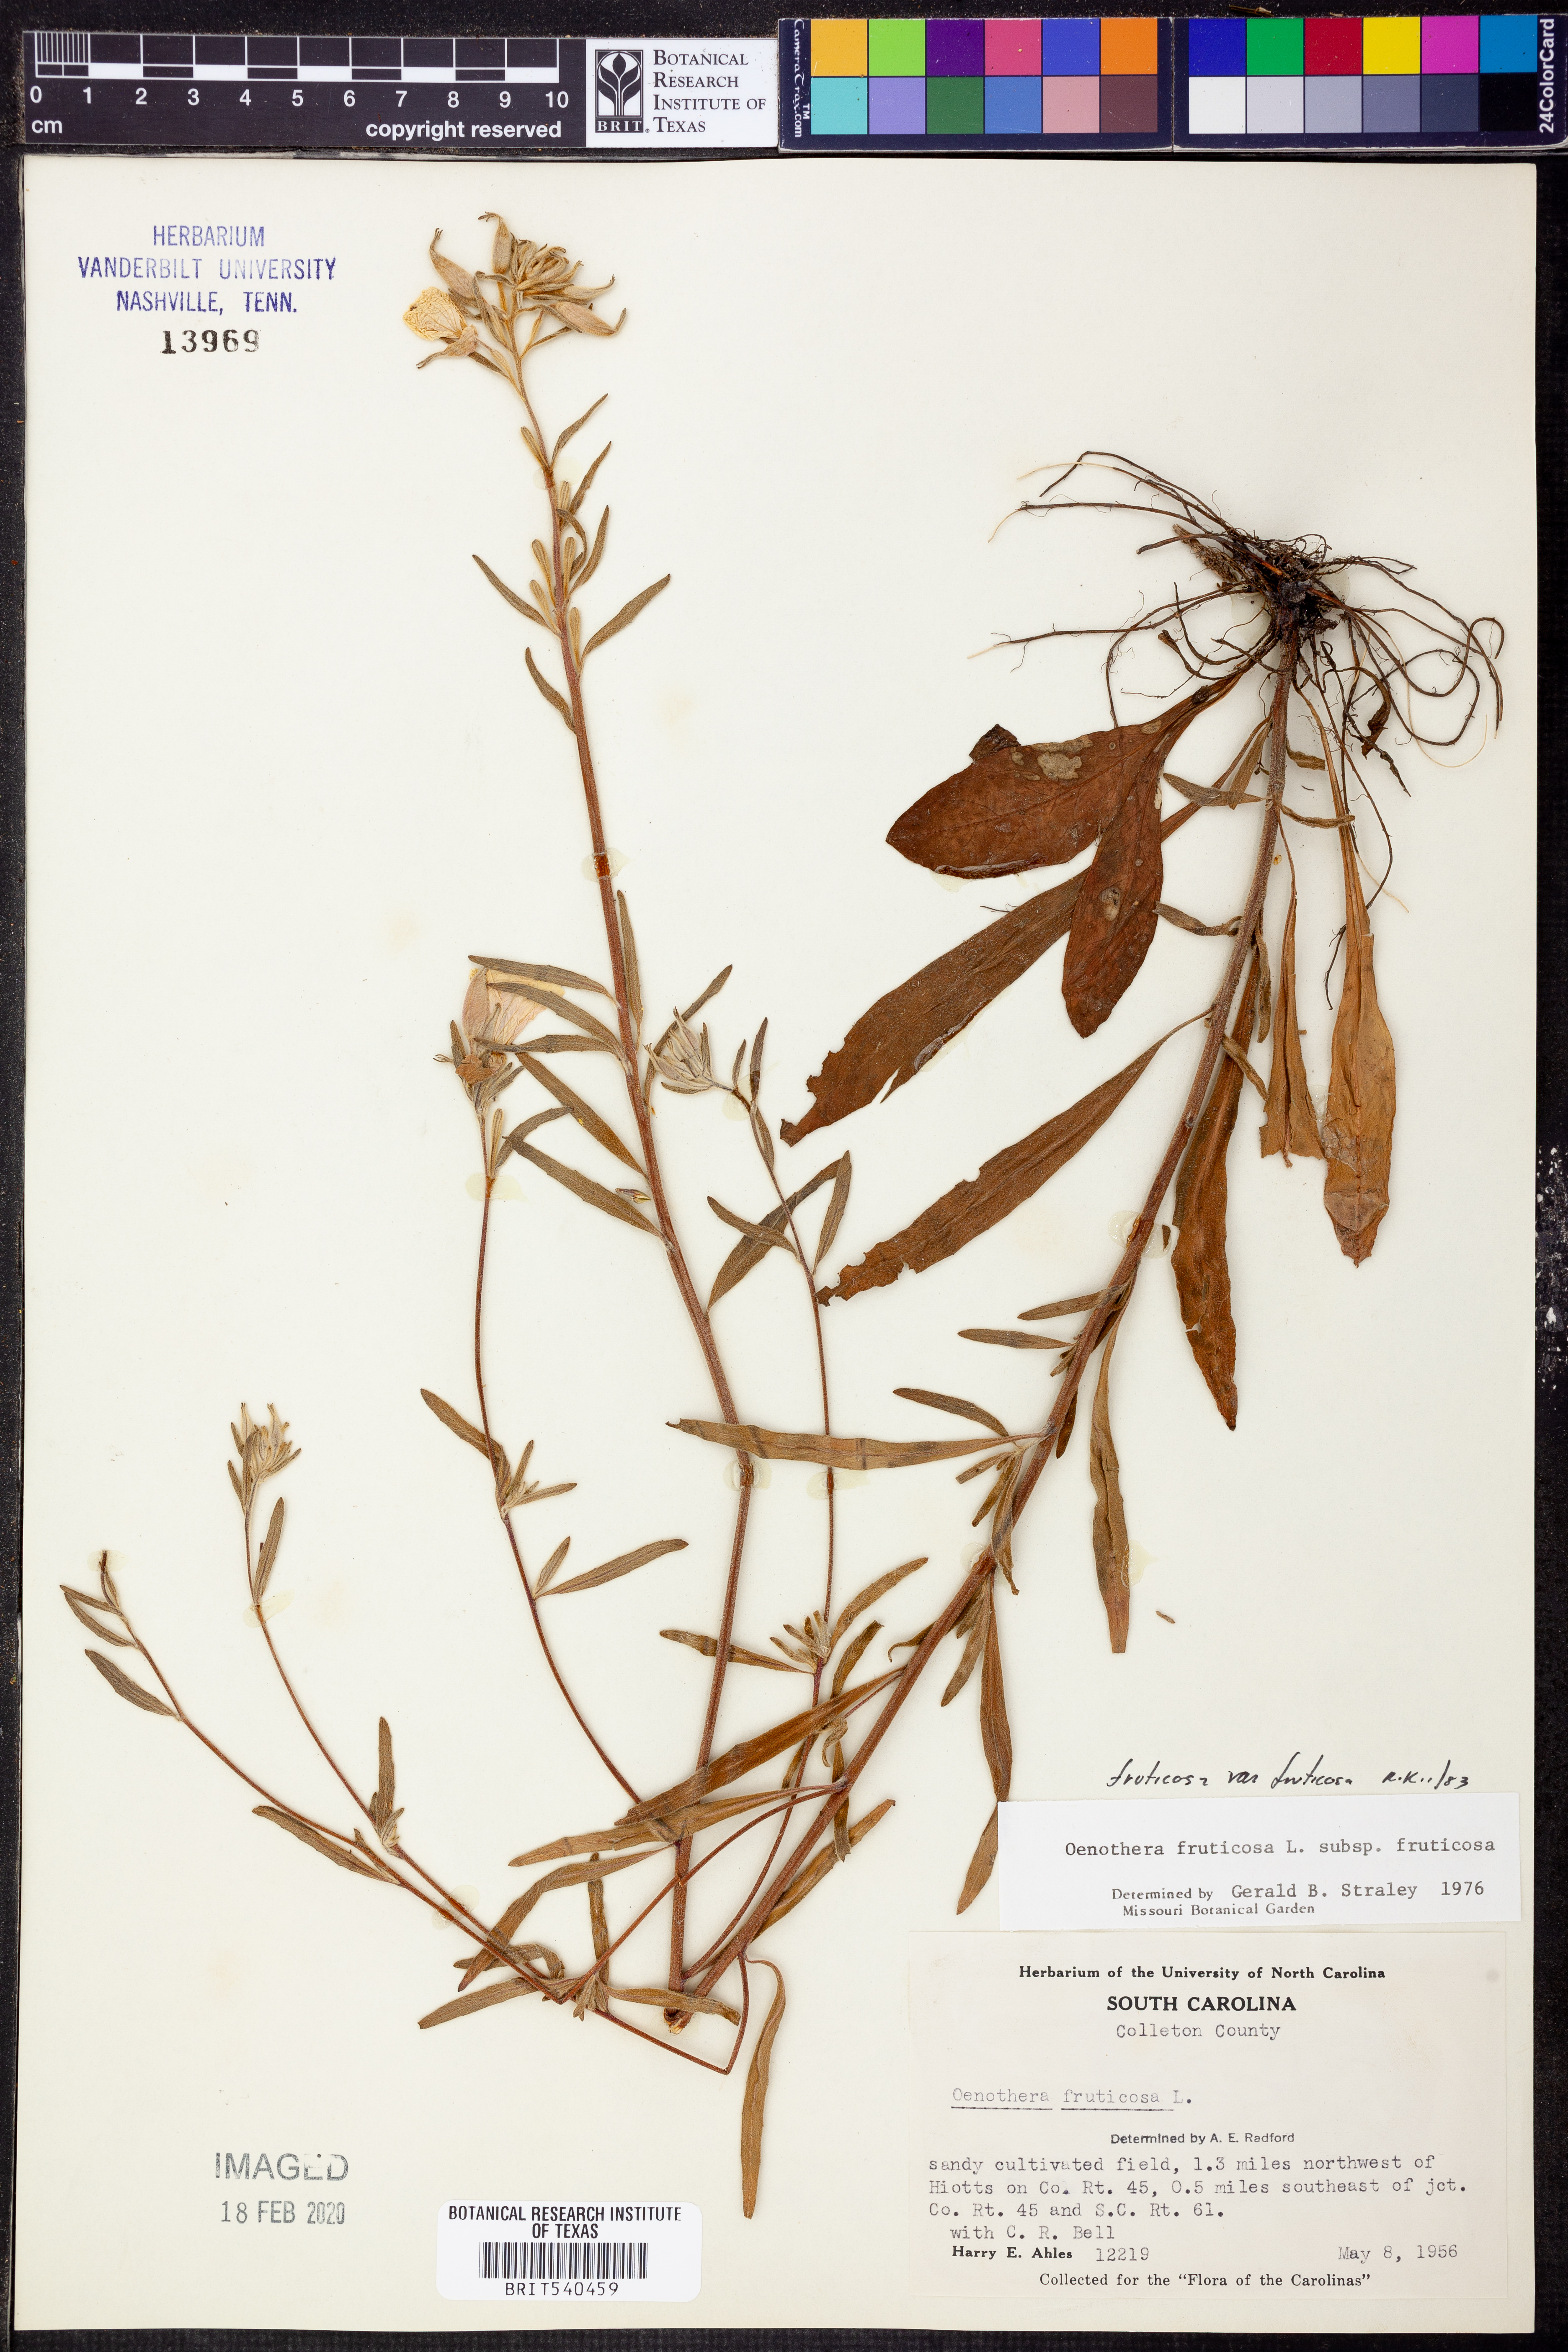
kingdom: Plantae
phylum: Tracheophyta
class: Magnoliopsida
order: Myrtales
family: Onagraceae
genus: Oenothera
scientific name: Oenothera fruticosa
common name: Southern sundrops
